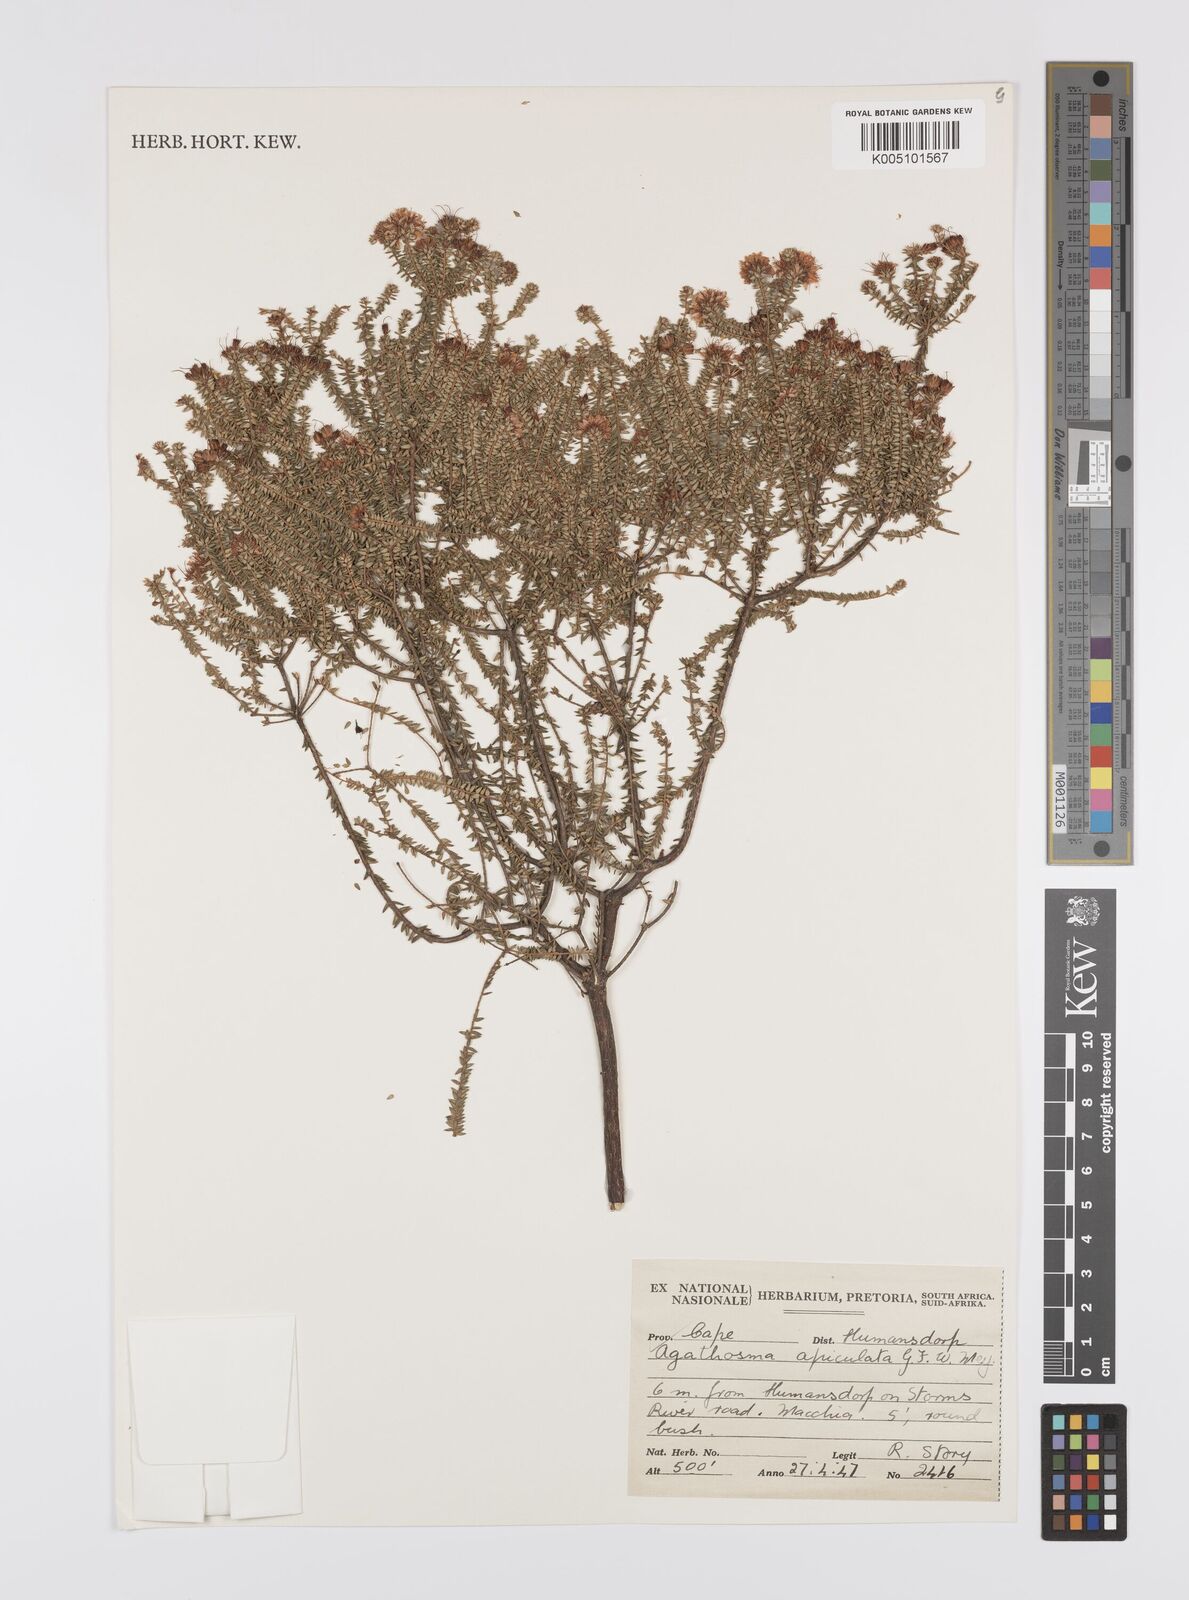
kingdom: Plantae
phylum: Tracheophyta
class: Magnoliopsida
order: Sapindales
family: Rutaceae
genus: Agathosma
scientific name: Agathosma
